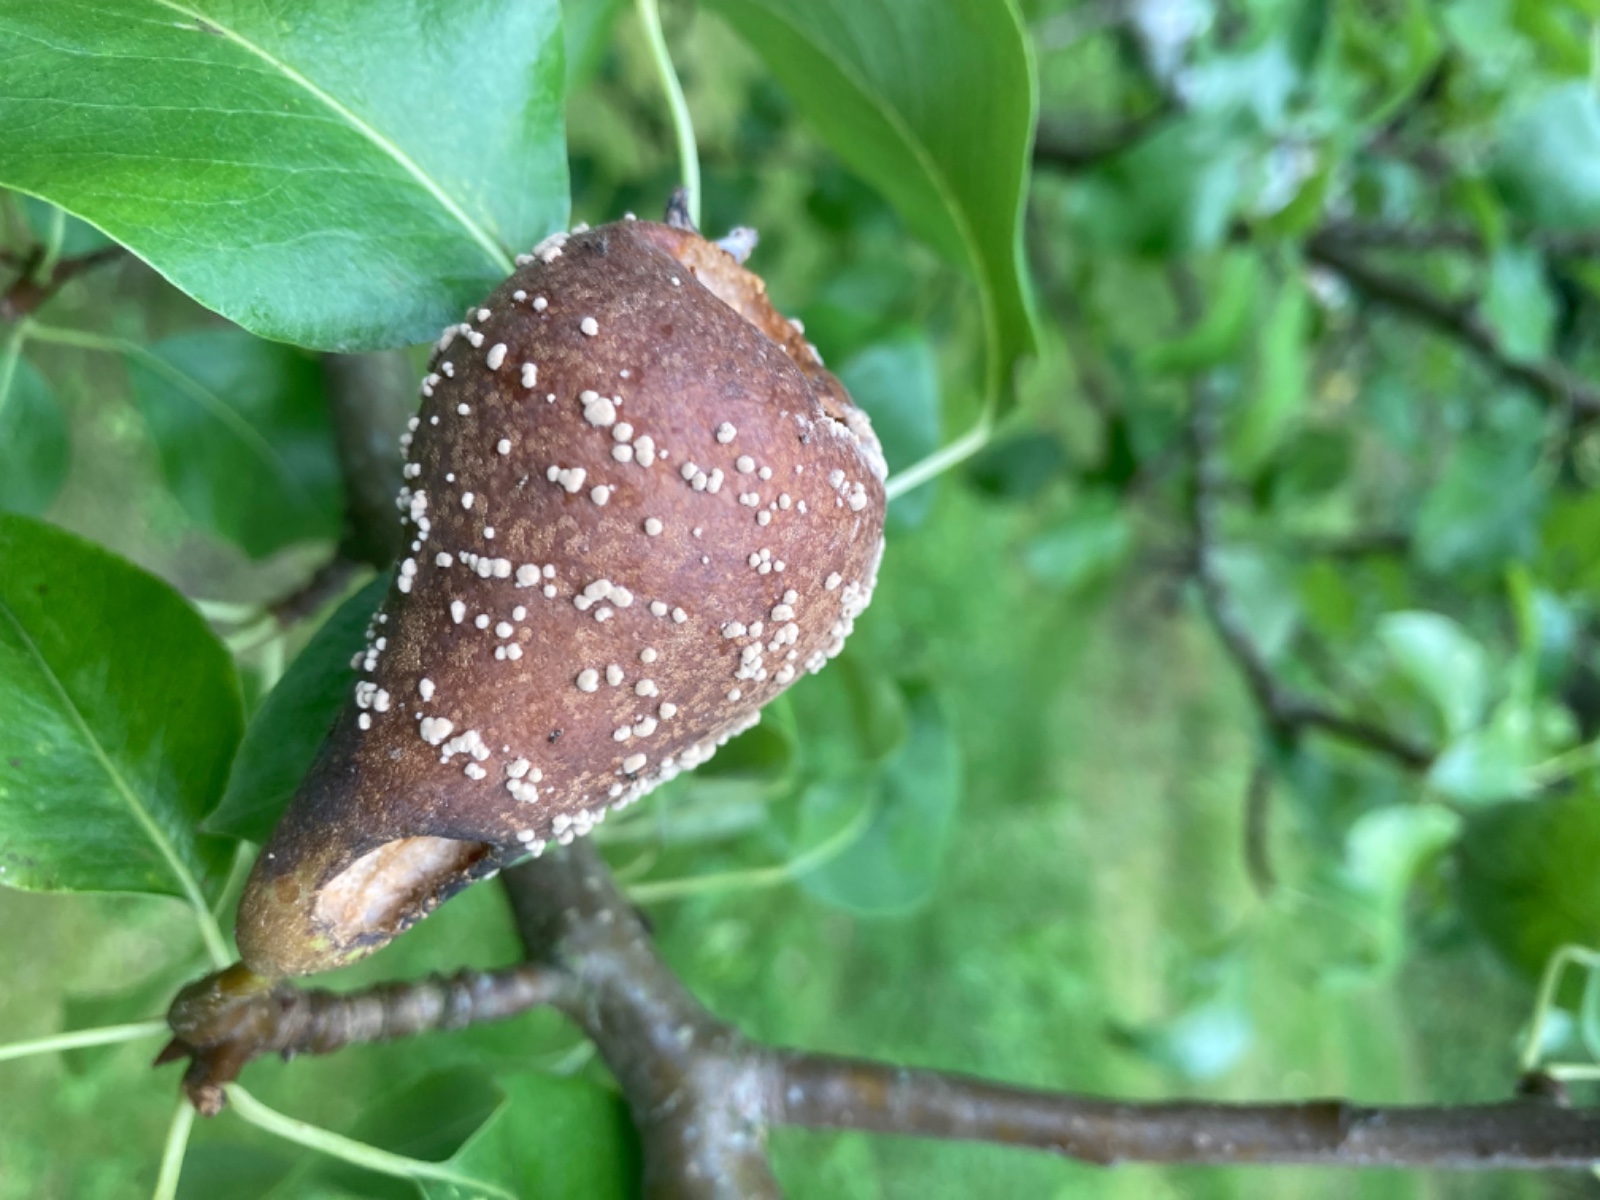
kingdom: Fungi
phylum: Ascomycota
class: Leotiomycetes
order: Helotiales
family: Sclerotiniaceae
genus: Monilinia
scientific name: Monilinia fructigena
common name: æble-knoldskive
